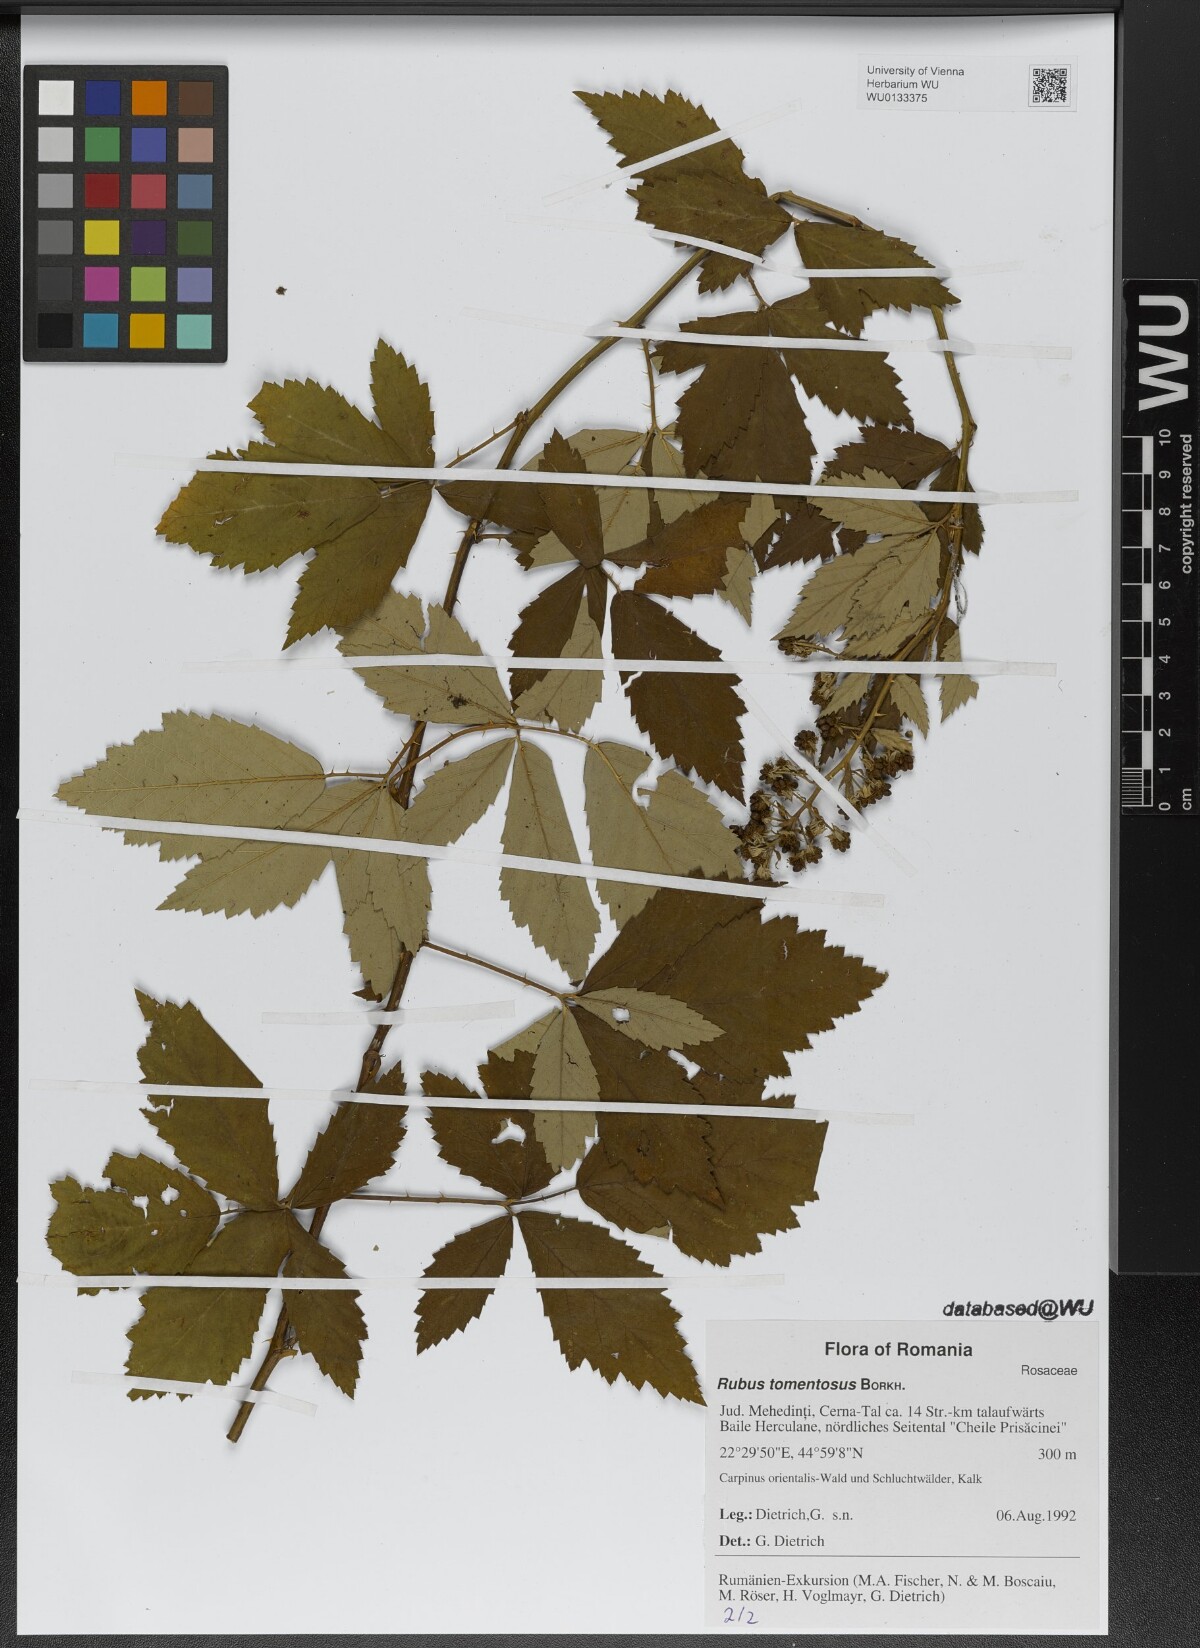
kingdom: Plantae
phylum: Tracheophyta
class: Magnoliopsida
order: Rosales
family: Rosaceae
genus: Rubus
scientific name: Rubus occidentalis
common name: Black raspberry
